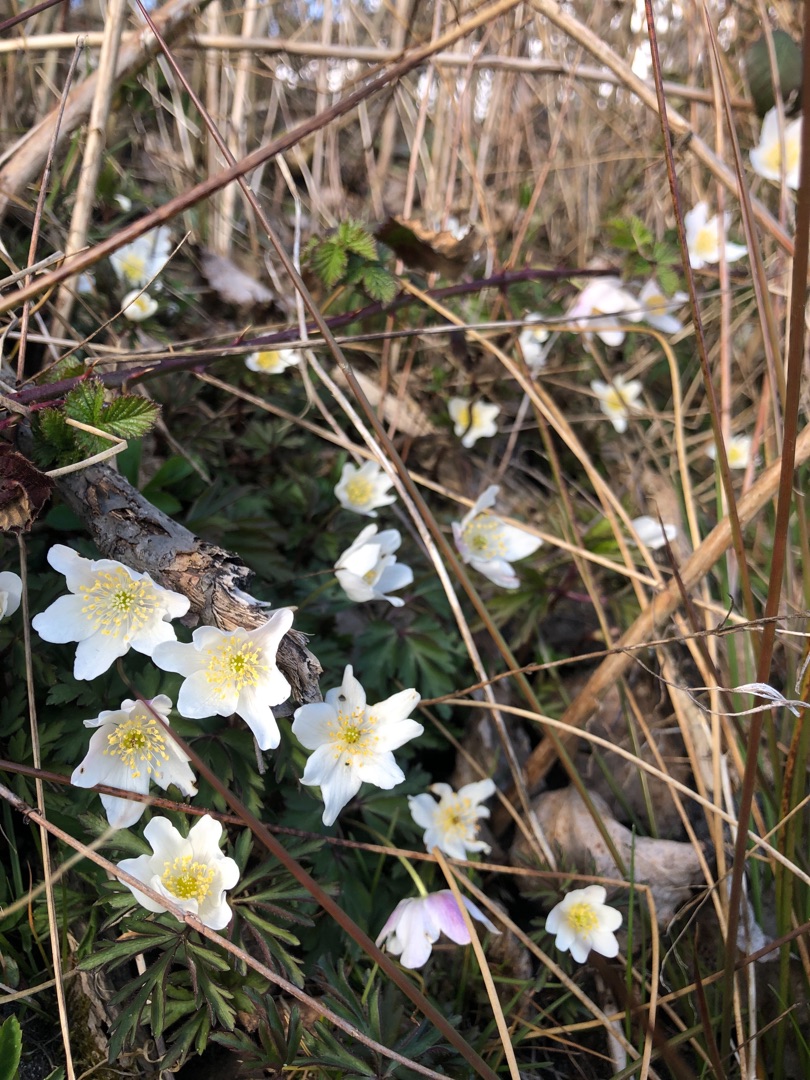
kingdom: Plantae
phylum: Tracheophyta
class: Magnoliopsida
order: Ranunculales
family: Ranunculaceae
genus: Anemone
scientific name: Anemone nemorosa
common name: Hvid anemone
